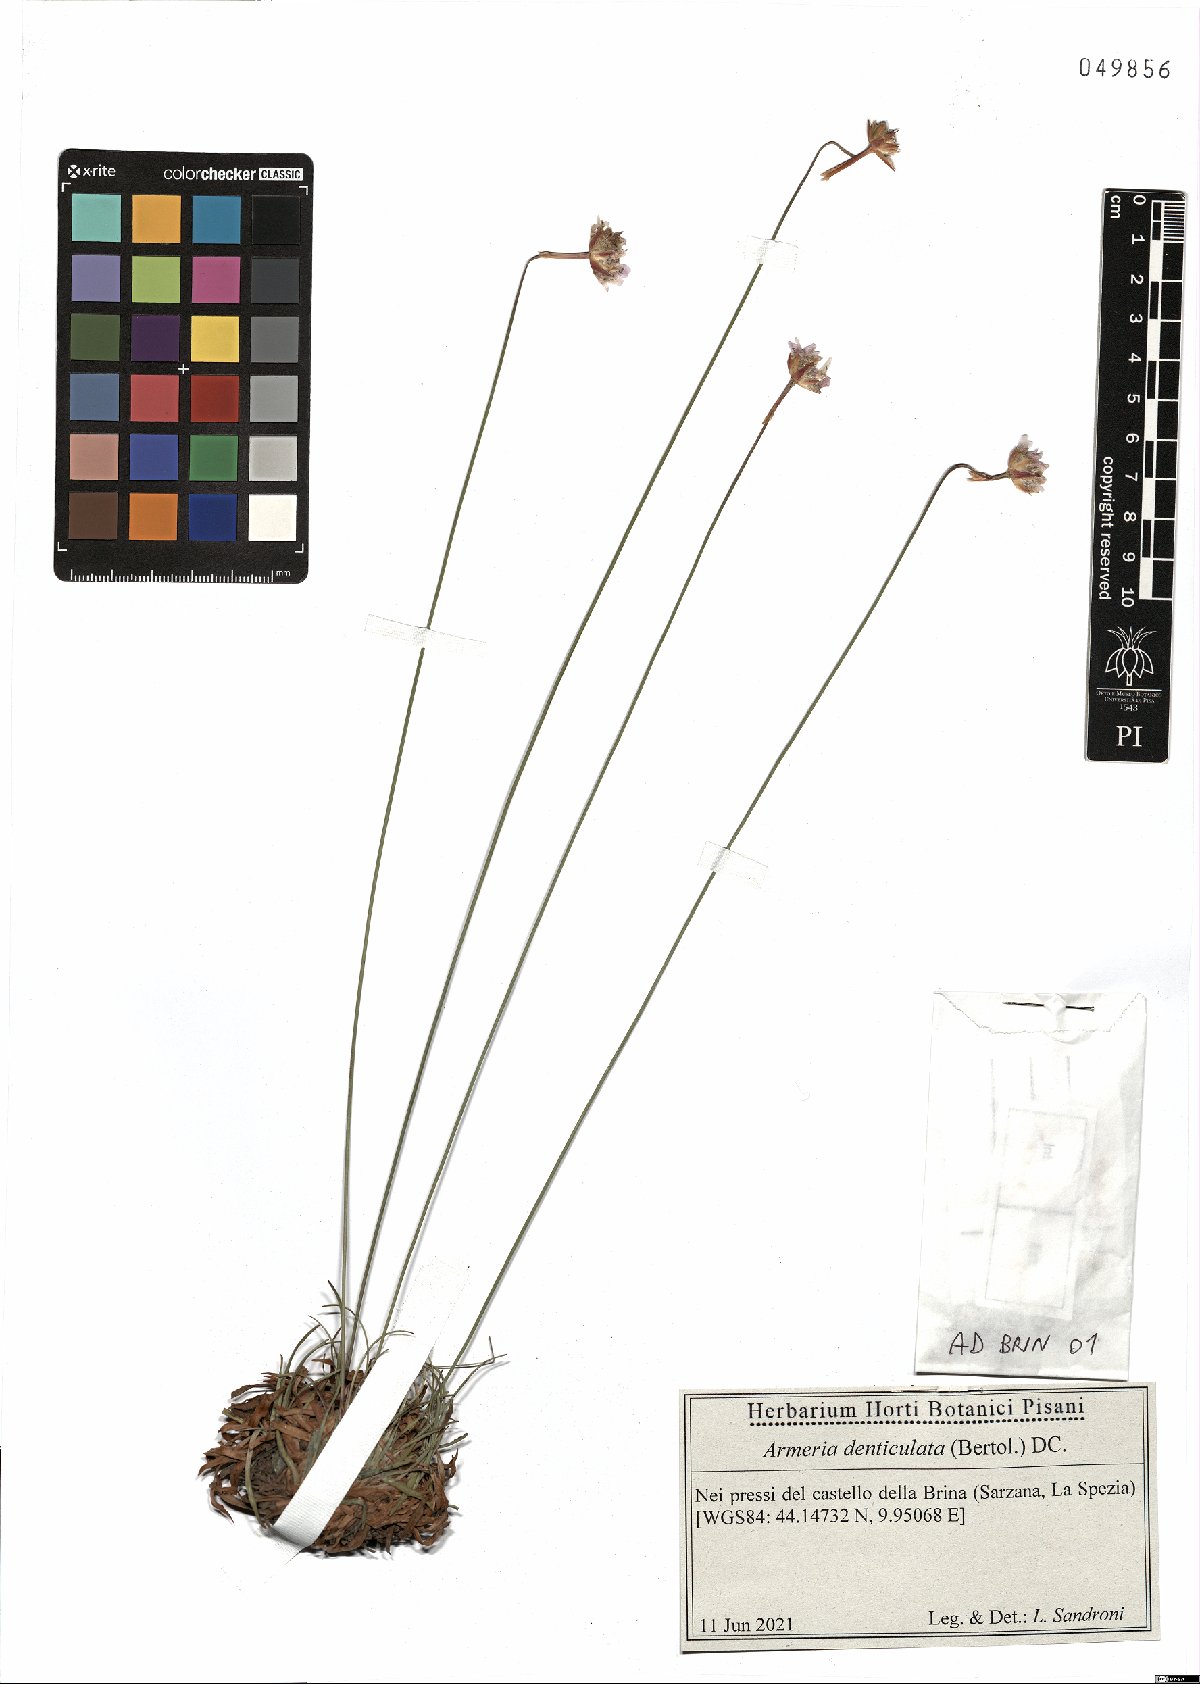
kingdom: Plantae
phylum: Tracheophyta
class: Magnoliopsida
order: Caryophyllales
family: Plumbaginaceae
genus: Armeria
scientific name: Armeria denticulata
